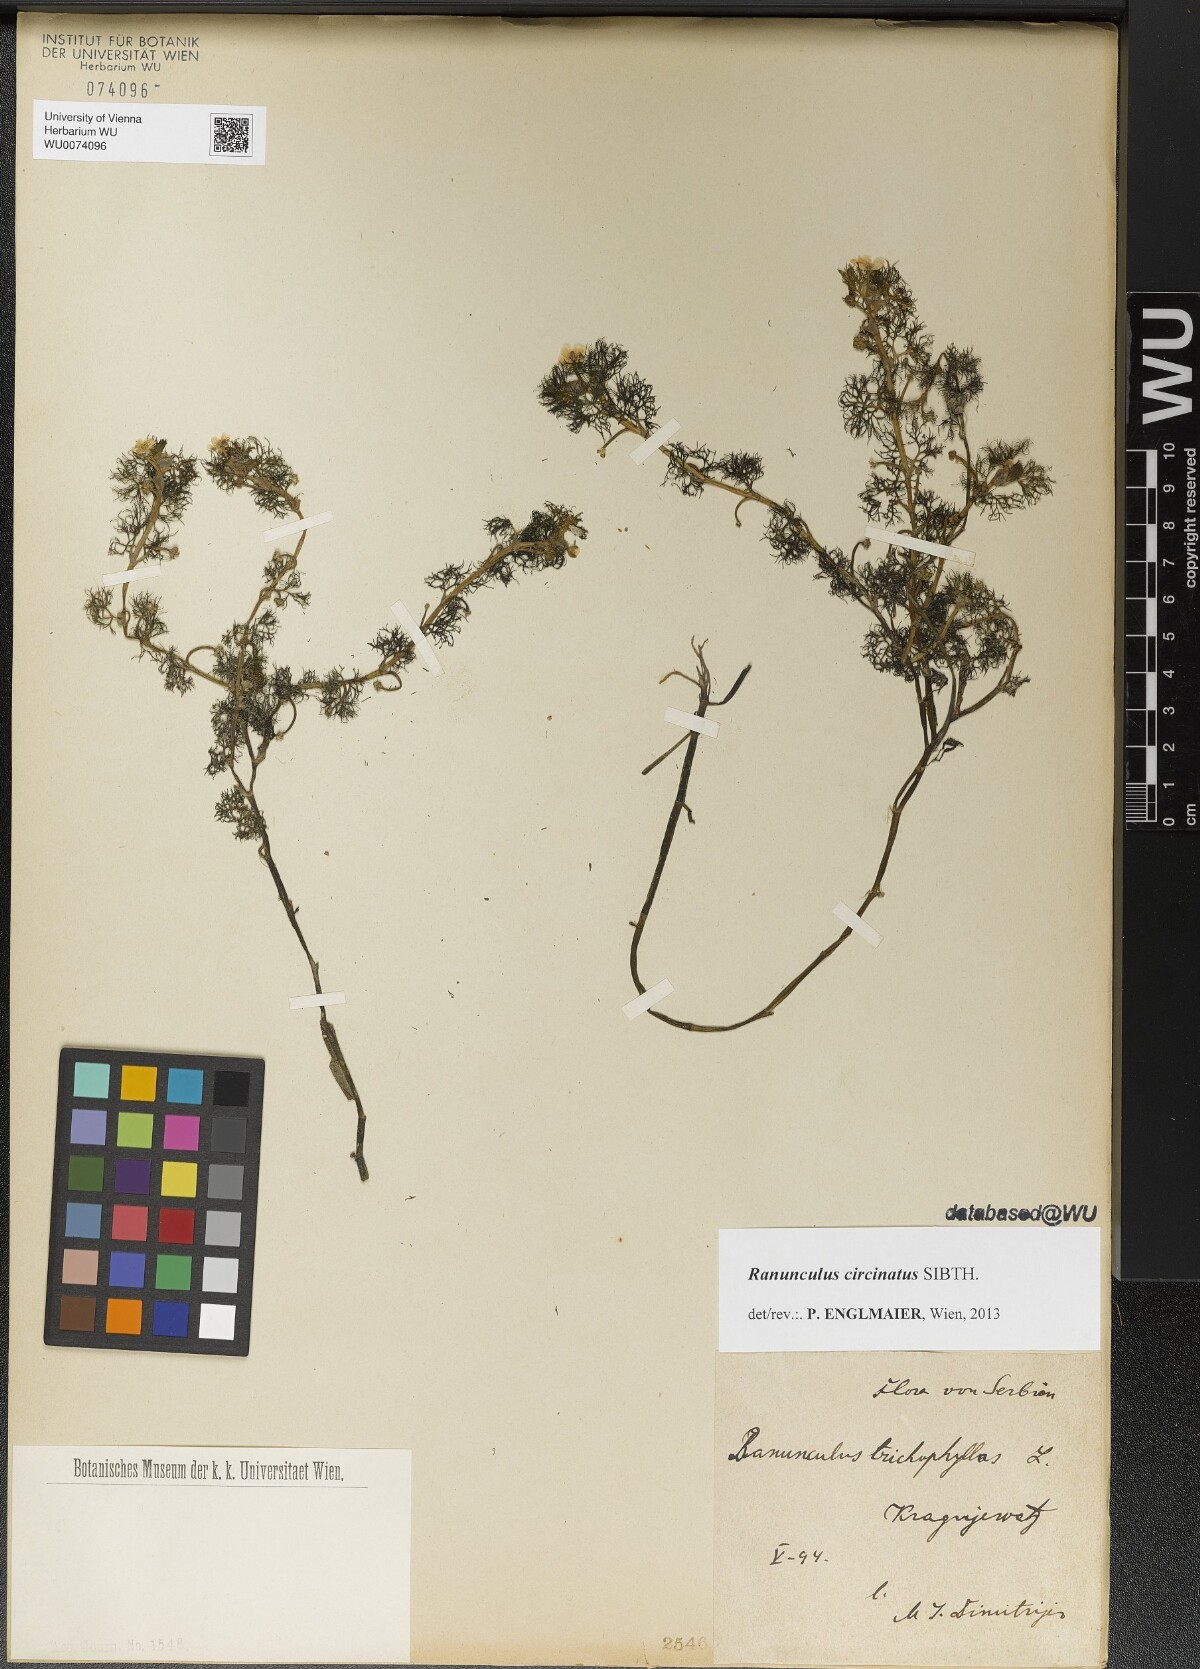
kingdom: Plantae
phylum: Tracheophyta
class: Magnoliopsida
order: Ranunculales
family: Ranunculaceae
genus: Ranunculus
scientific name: Ranunculus circinatus
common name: Fan-leaved water-crowfoot
